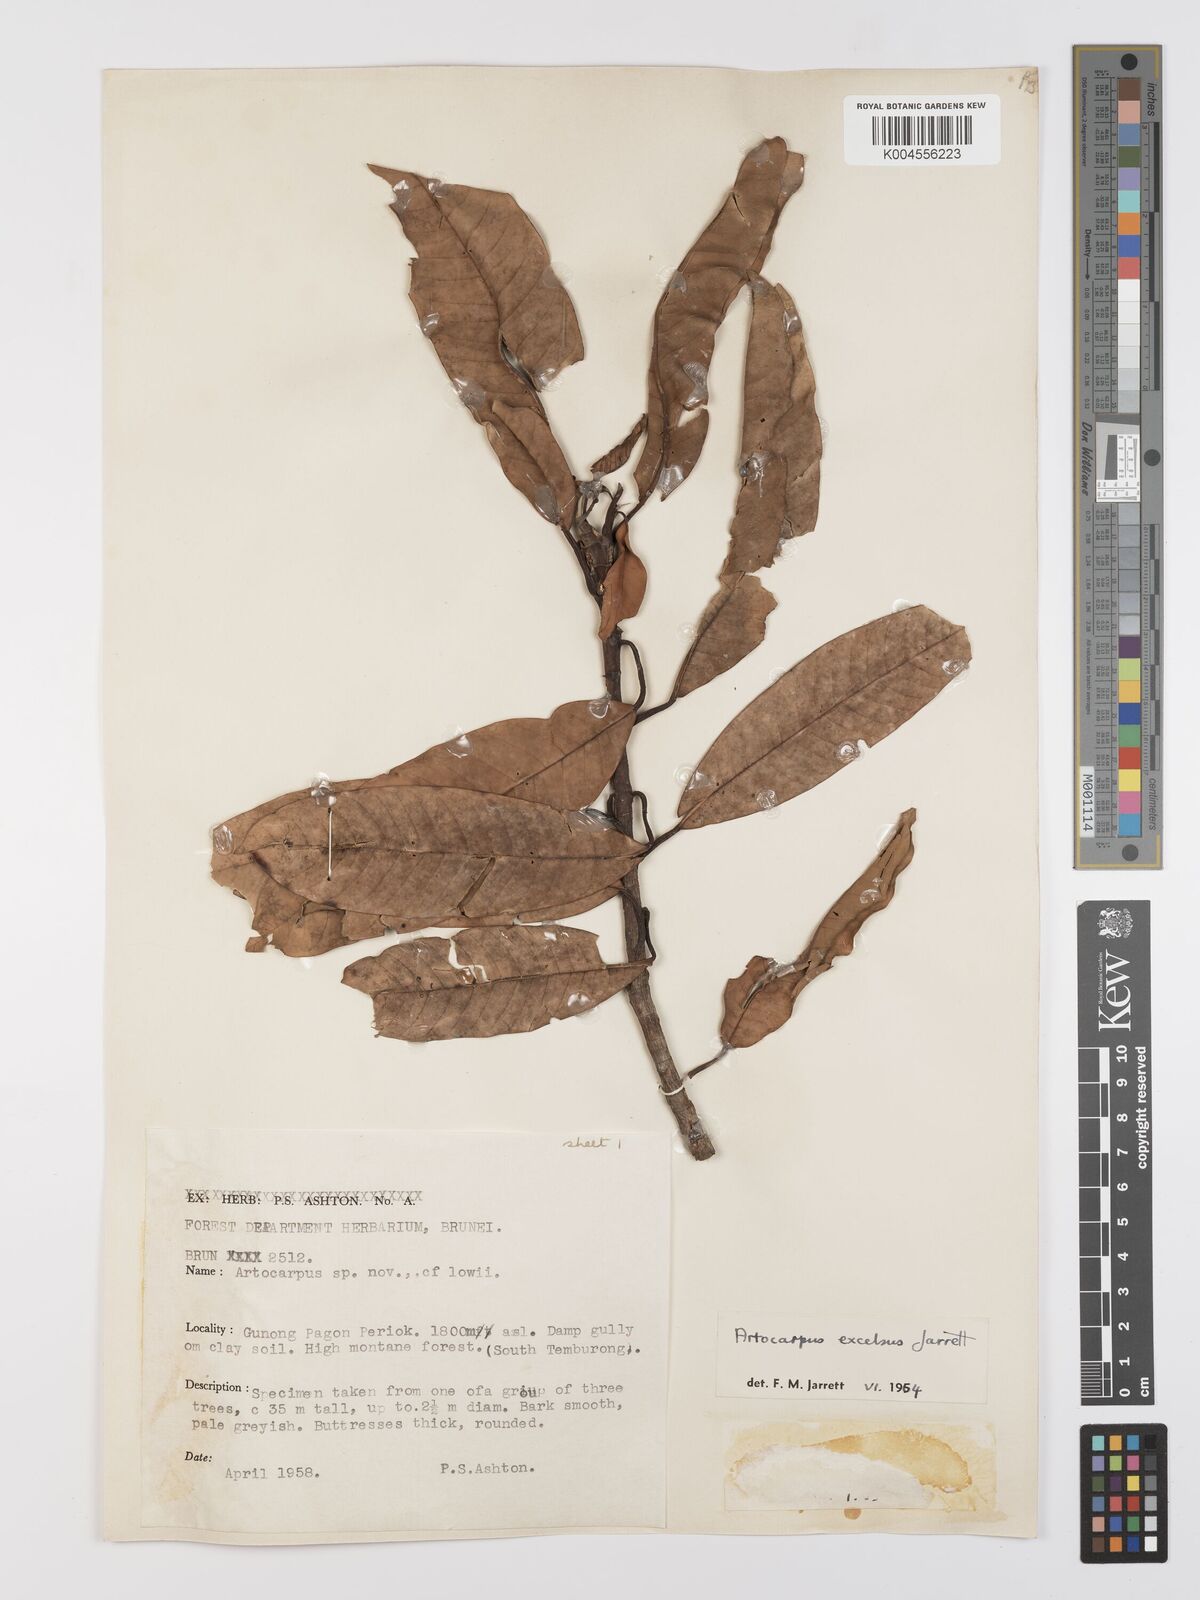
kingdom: Plantae
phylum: Tracheophyta
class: Magnoliopsida
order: Rosales
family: Moraceae
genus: Artocarpus
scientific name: Artocarpus excelsus
